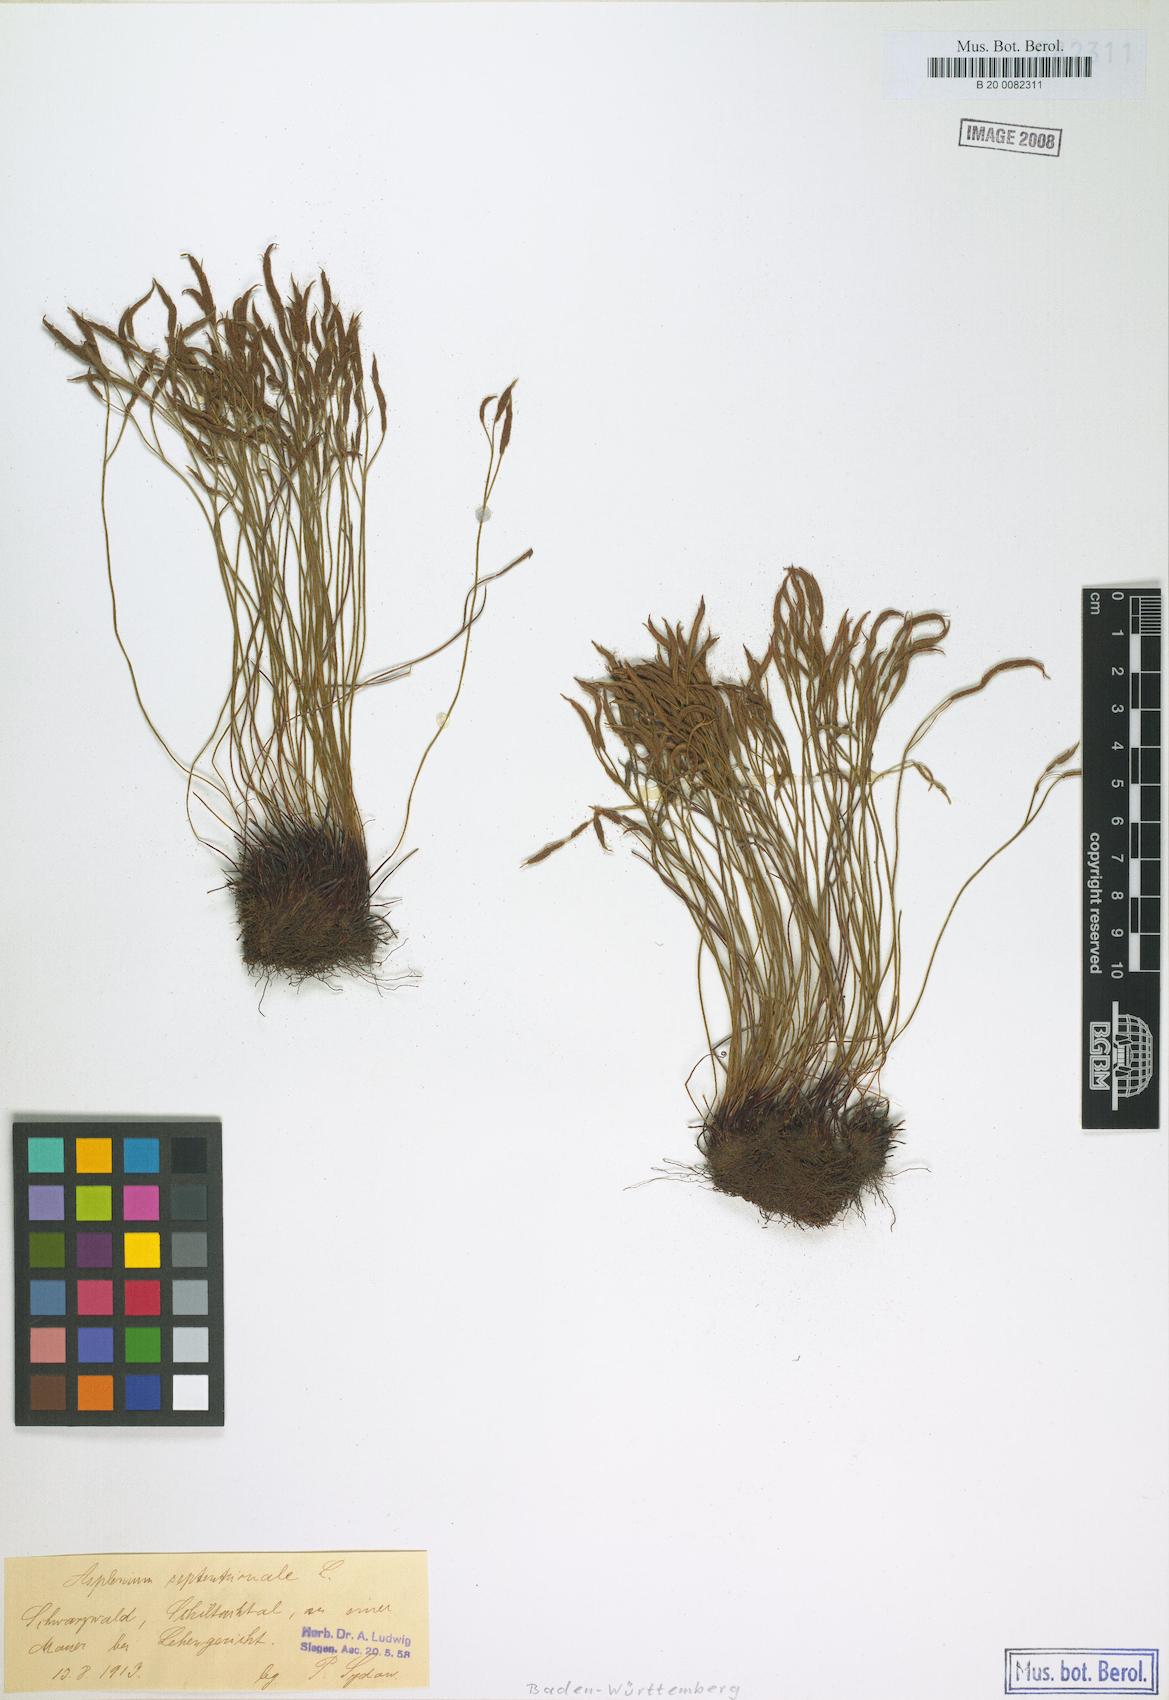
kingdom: Plantae
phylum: Tracheophyta
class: Polypodiopsida
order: Polypodiales
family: Aspleniaceae
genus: Asplenium
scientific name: Asplenium septentrionale
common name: Forked spleenwort
